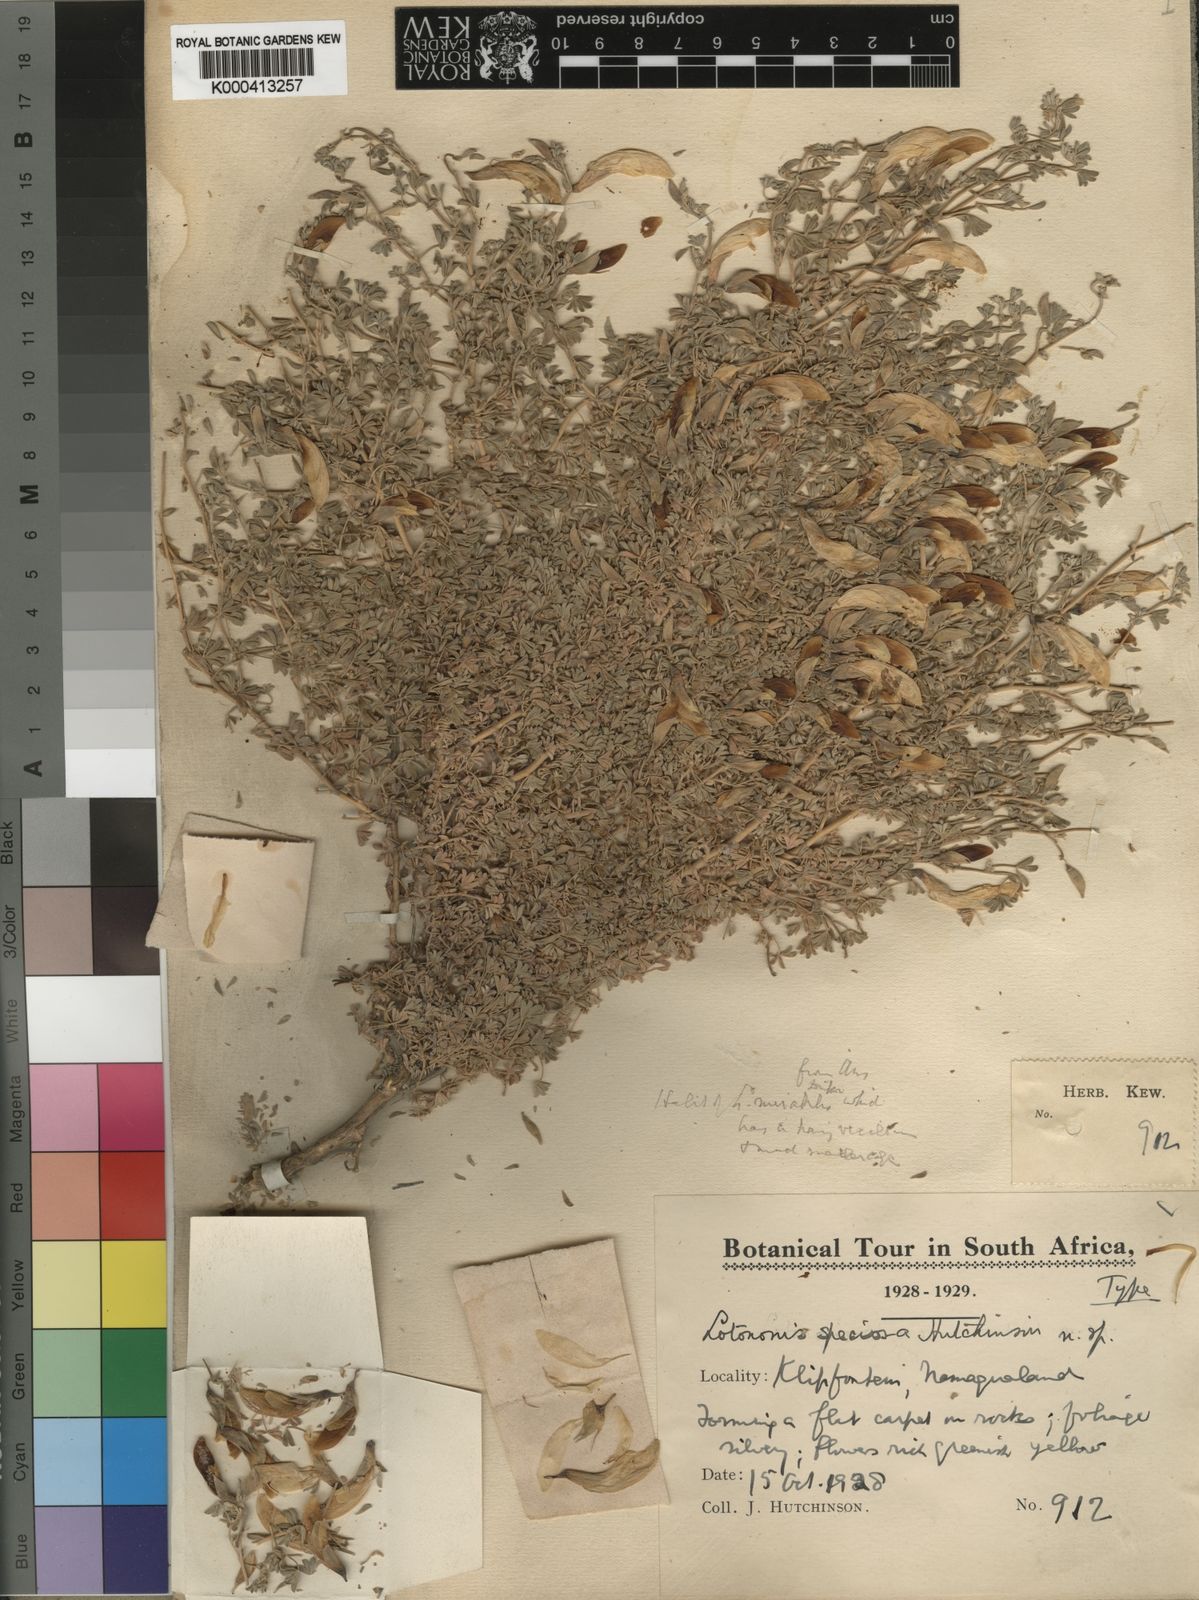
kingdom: Plantae
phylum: Tracheophyta
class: Magnoliopsida
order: Fabales
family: Fabaceae
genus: Leobordea
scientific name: Leobordea longiflora
